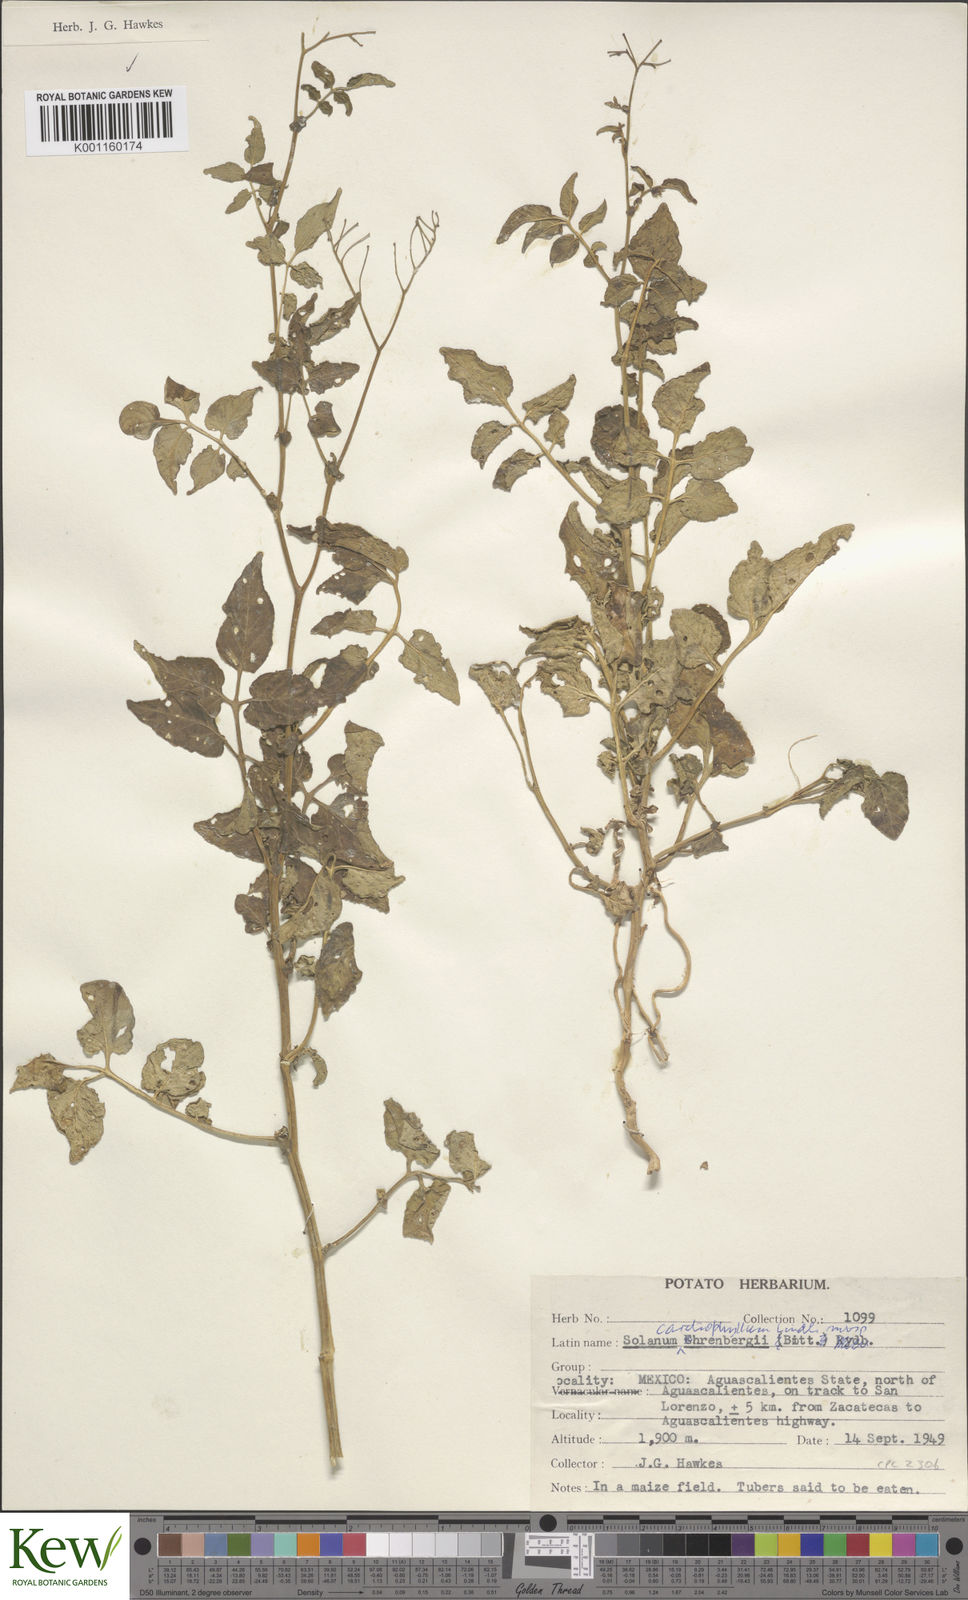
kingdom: Plantae
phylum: Tracheophyta
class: Magnoliopsida
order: Solanales
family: Solanaceae
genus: Solanum
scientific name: Solanum cardiophyllum
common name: Heartleaf horsenettle
